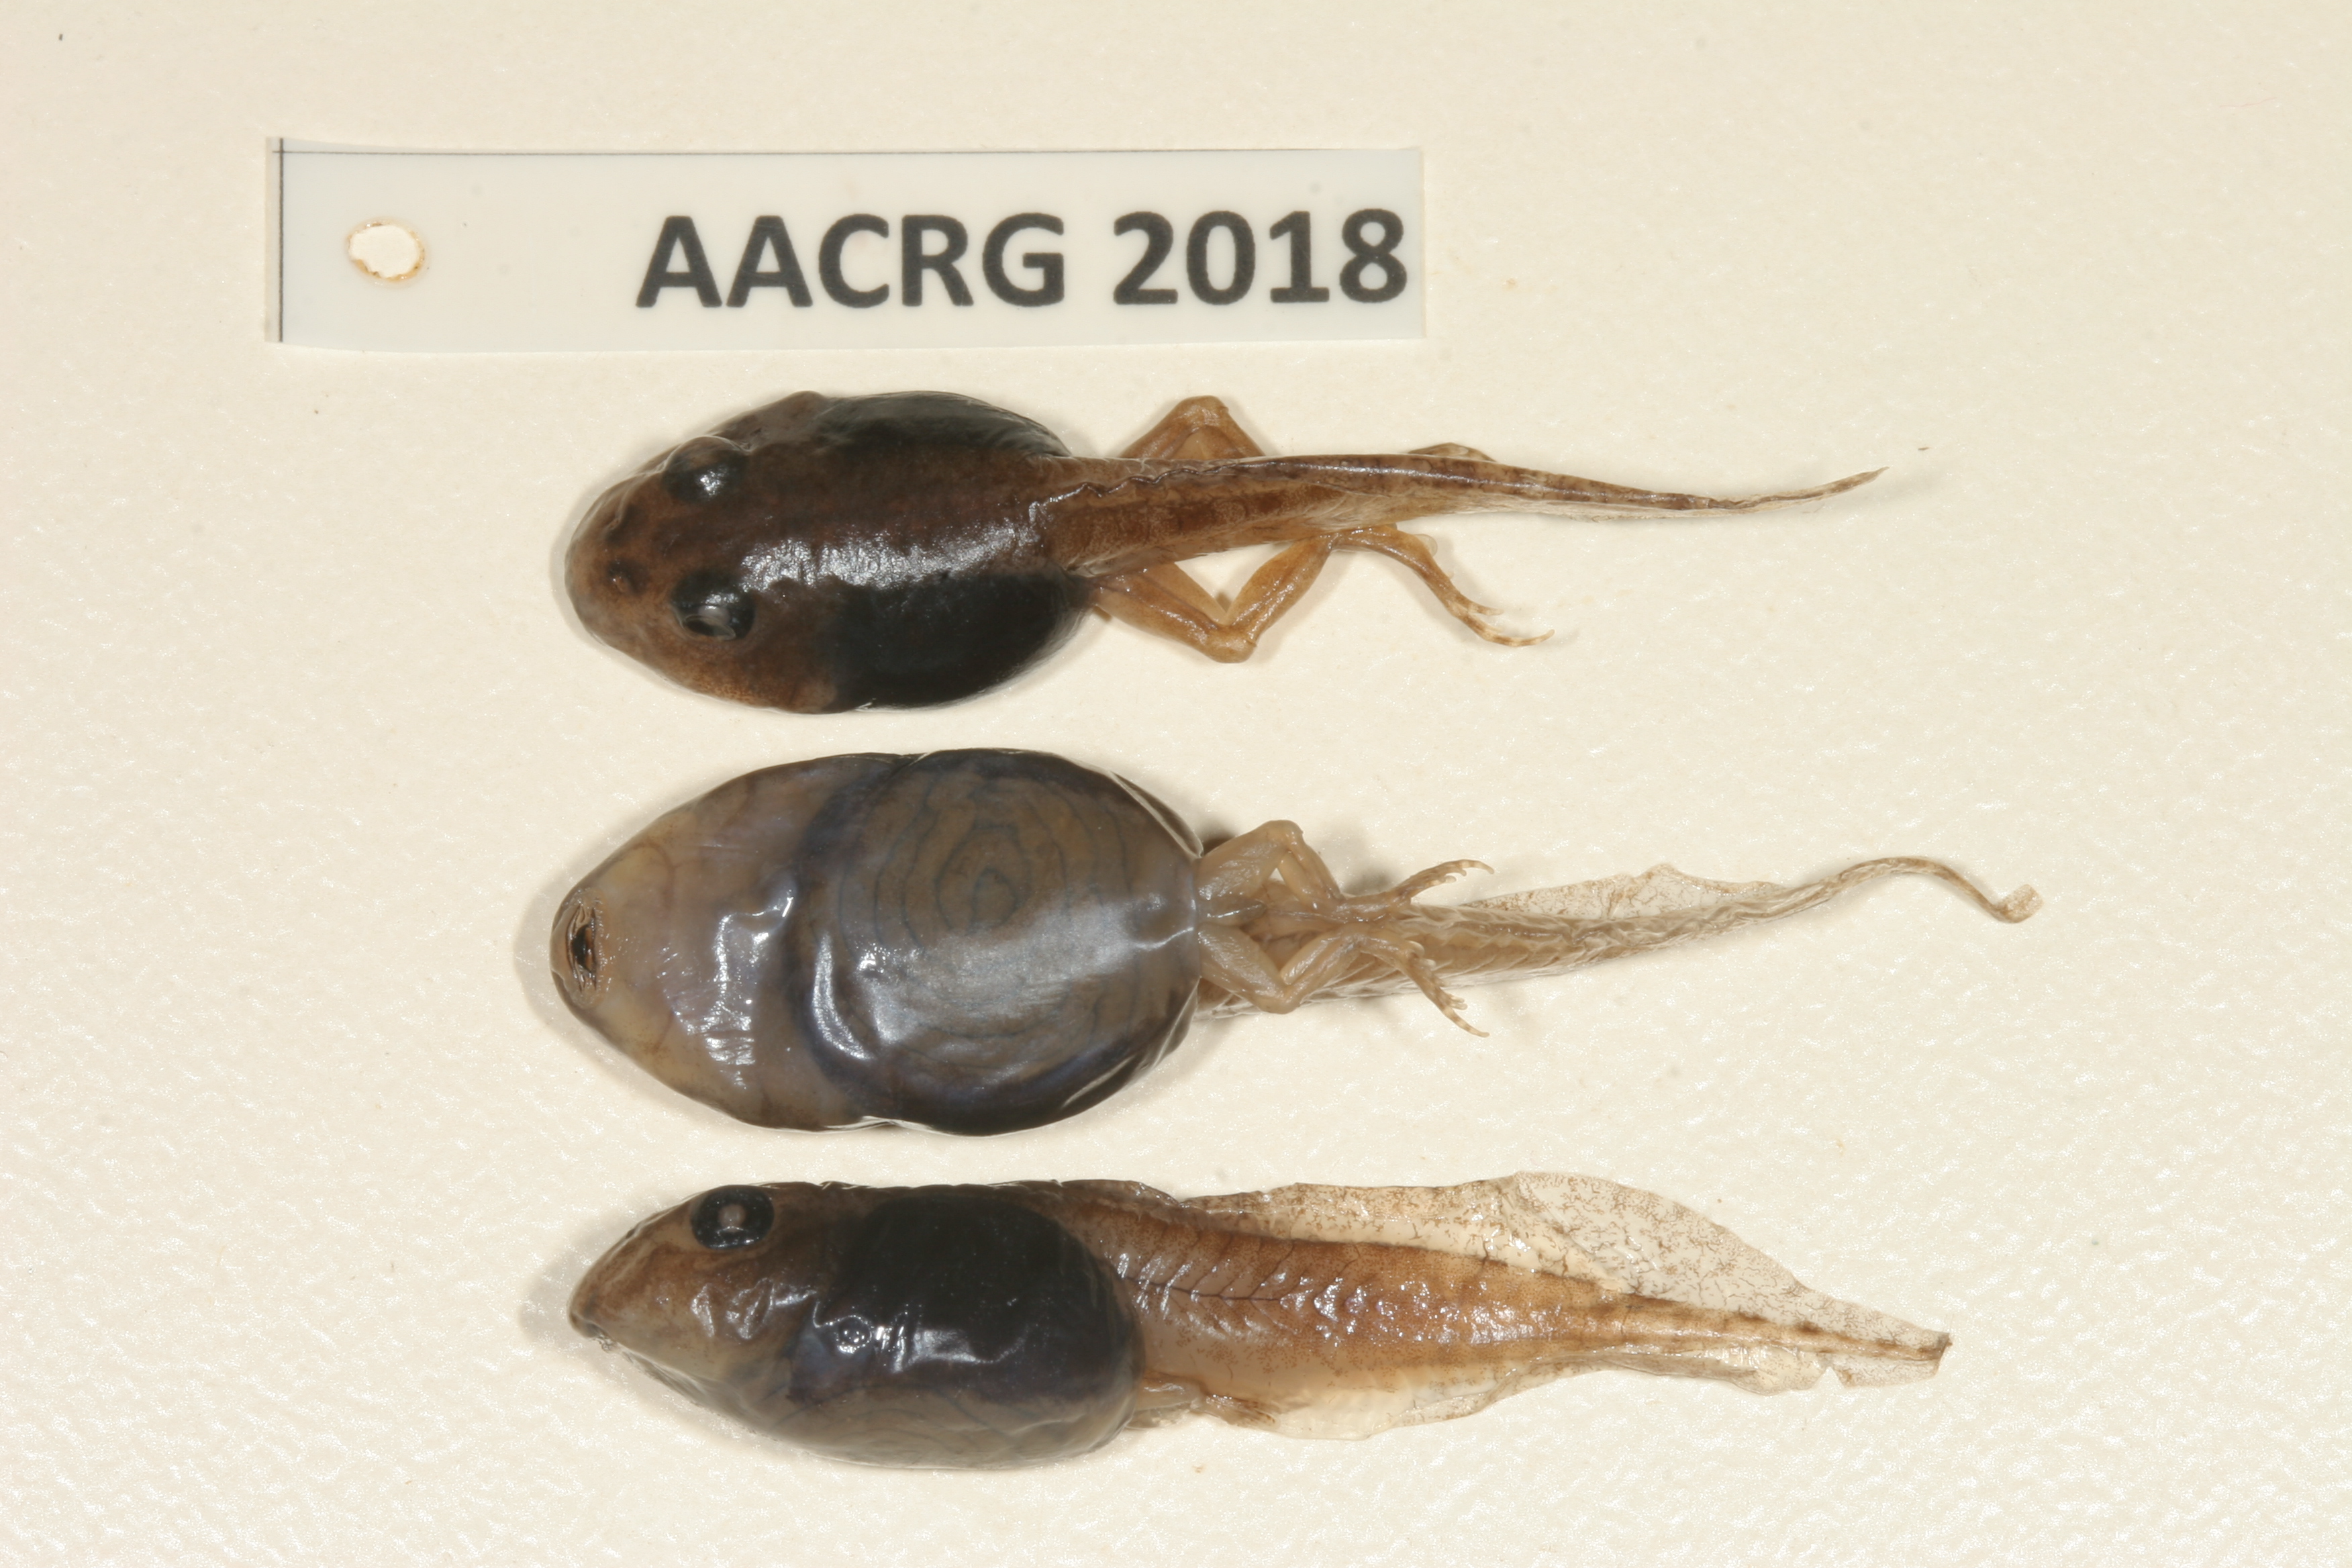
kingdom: Animalia
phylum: Chordata
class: Amphibia
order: Anura
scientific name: Anura
